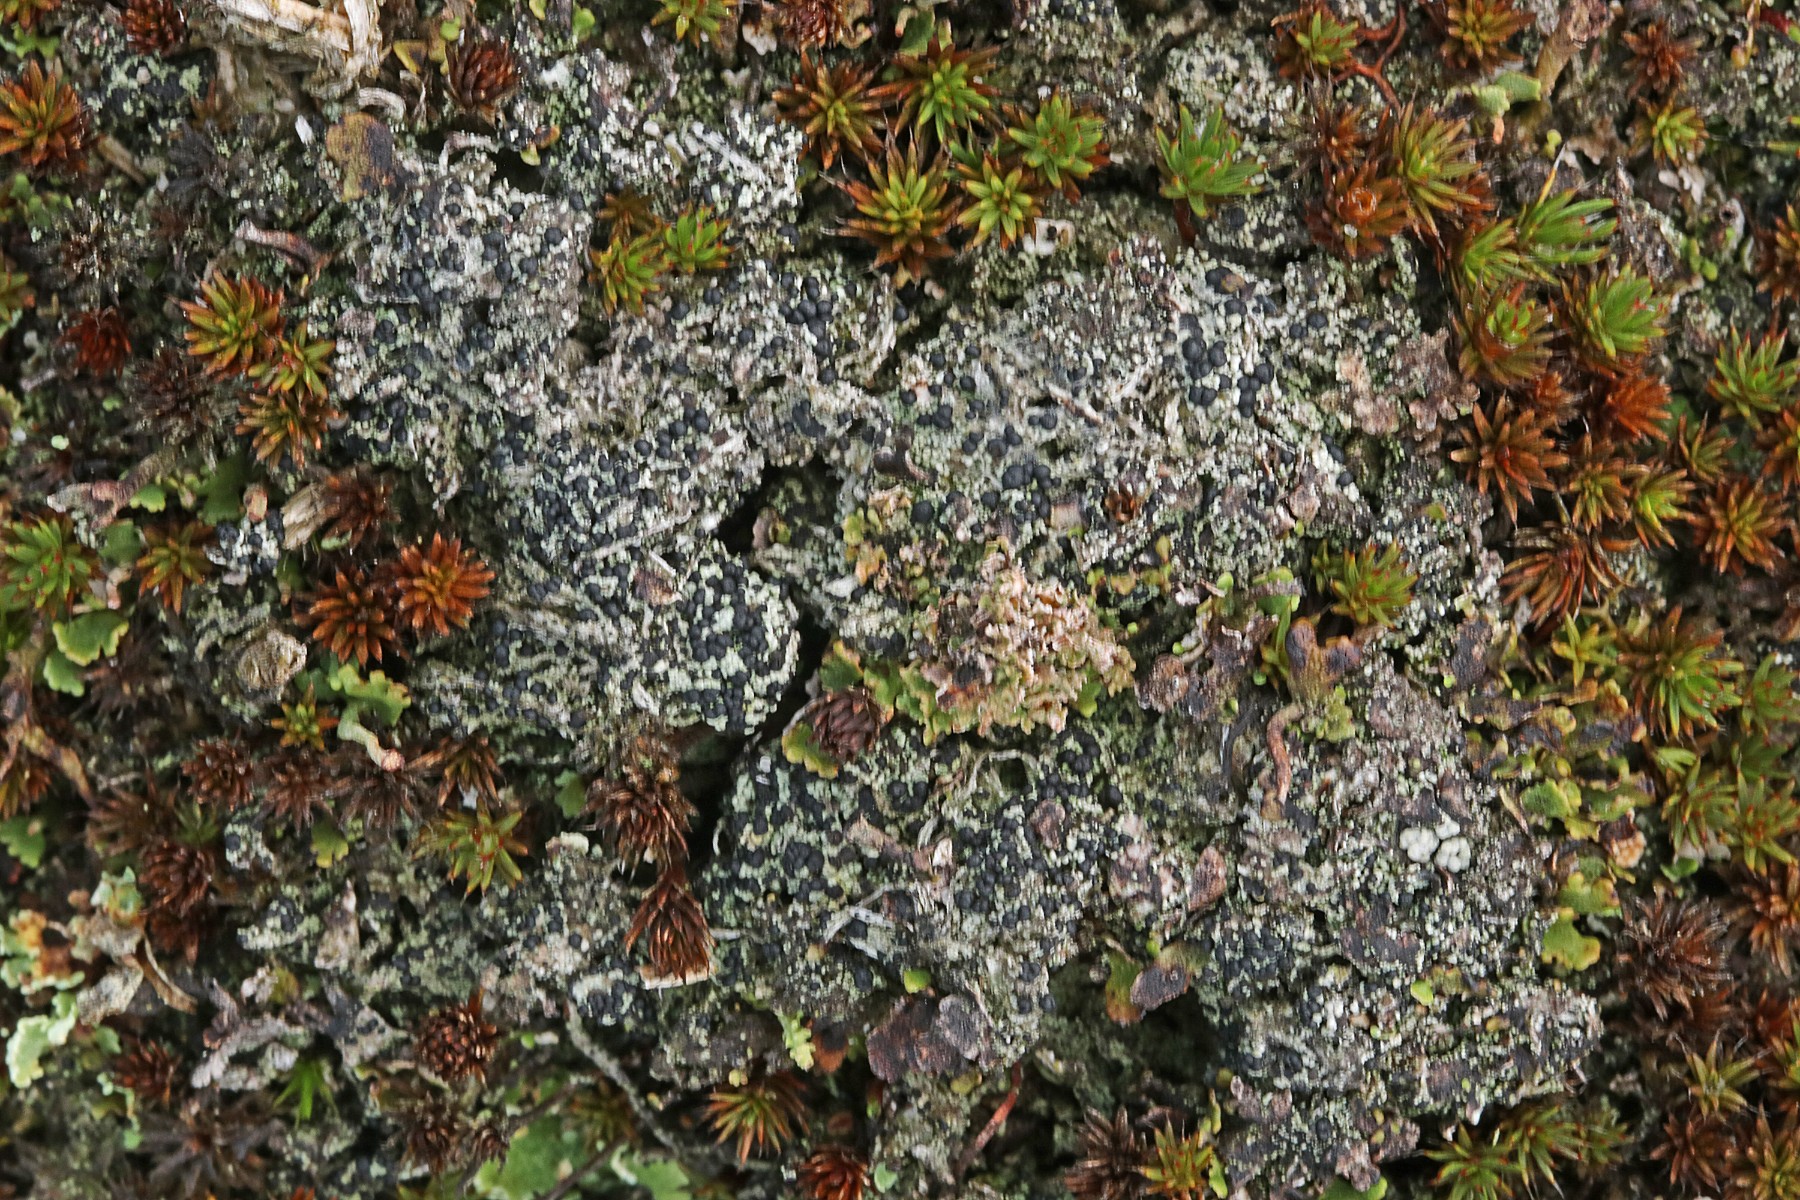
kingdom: Fungi
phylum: Ascomycota
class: Lecanoromycetes
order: Lecanorales
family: Byssolomataceae
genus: Micarea
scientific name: Micarea lignaria
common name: tørve-knaplav
